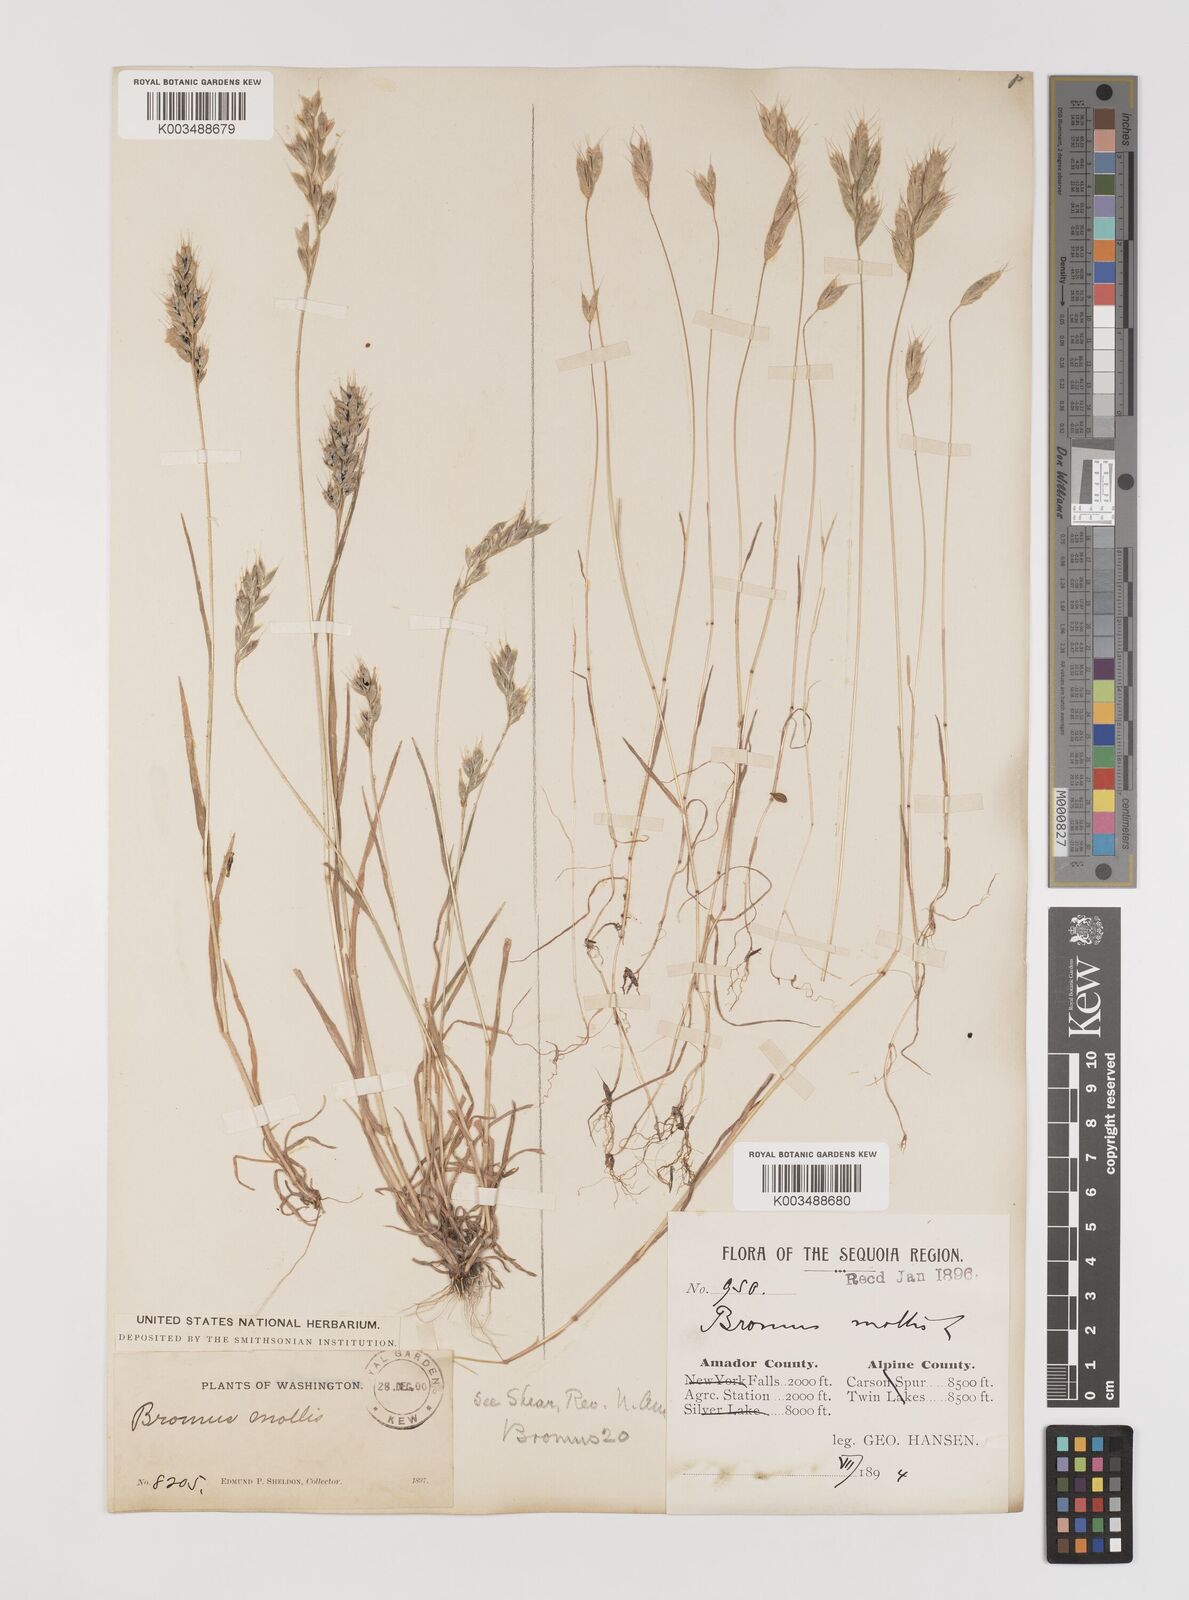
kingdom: Plantae
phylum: Tracheophyta
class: Liliopsida
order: Poales
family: Poaceae
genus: Bromus
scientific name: Bromus hordeaceus
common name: Soft brome
